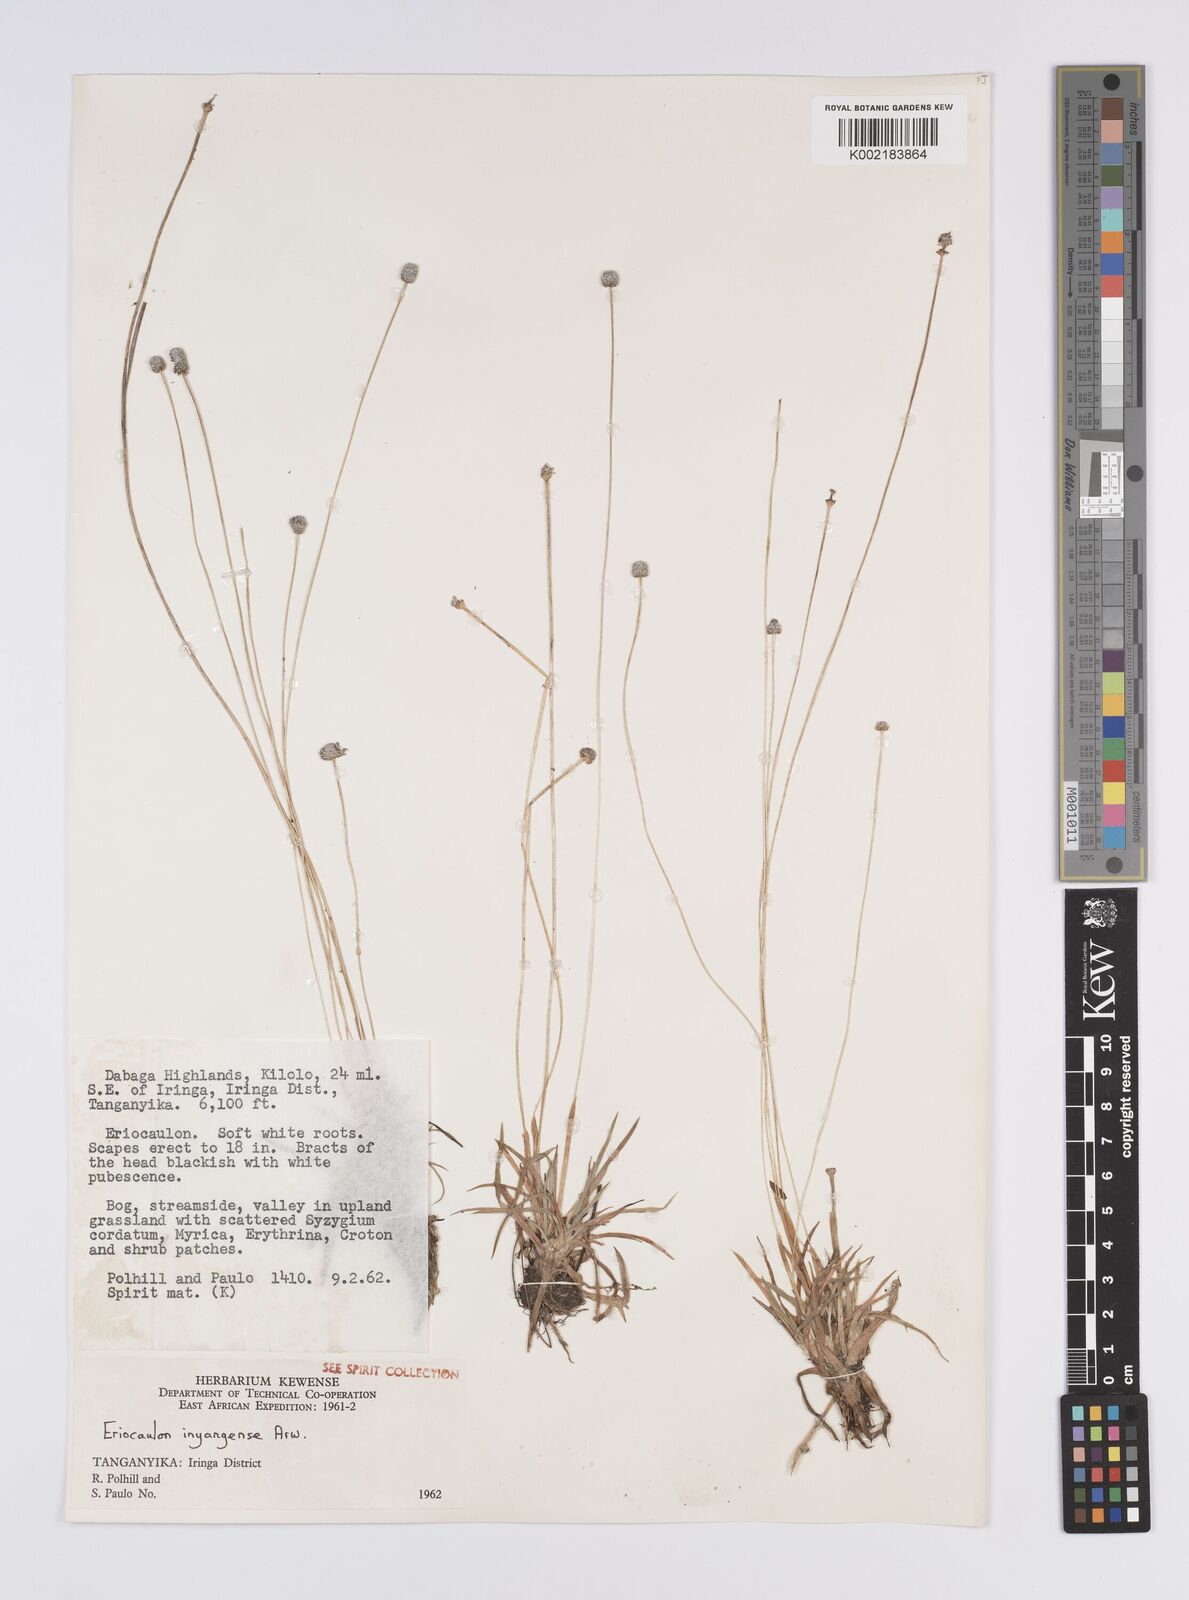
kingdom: Plantae
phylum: Tracheophyta
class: Liliopsida
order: Poales
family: Eriocaulaceae
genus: Eriocaulon
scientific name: Eriocaulon inyangense
